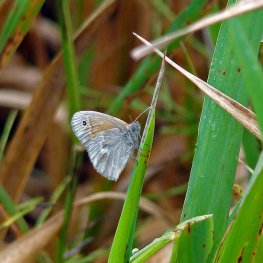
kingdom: Animalia
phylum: Arthropoda
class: Insecta
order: Lepidoptera
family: Nymphalidae
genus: Coenonympha
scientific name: Coenonympha tullia
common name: Large Heath
